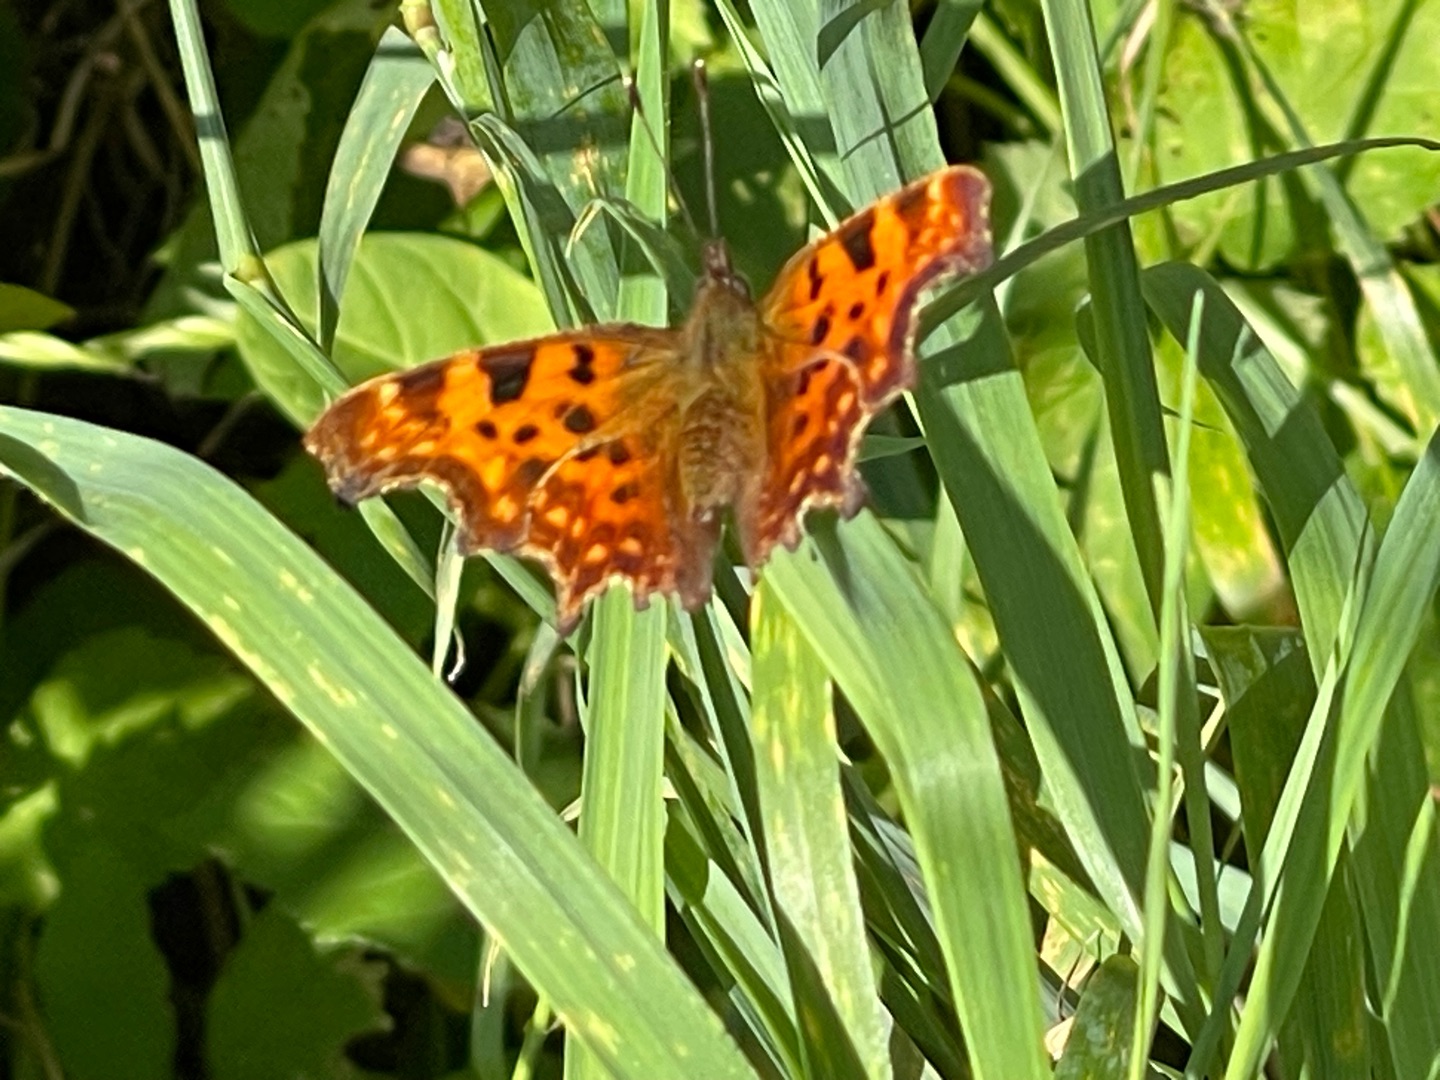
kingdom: Animalia
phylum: Arthropoda
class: Insecta
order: Lepidoptera
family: Nymphalidae
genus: Polygonia
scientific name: Polygonia c-album
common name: Det hvide C
